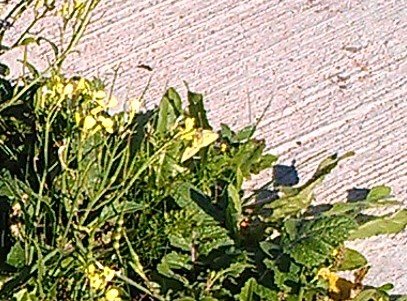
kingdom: Animalia
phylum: Arthropoda
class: Insecta
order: Lepidoptera
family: Pieridae
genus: Colias
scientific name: Colias philodice
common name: Clouded Sulphur
